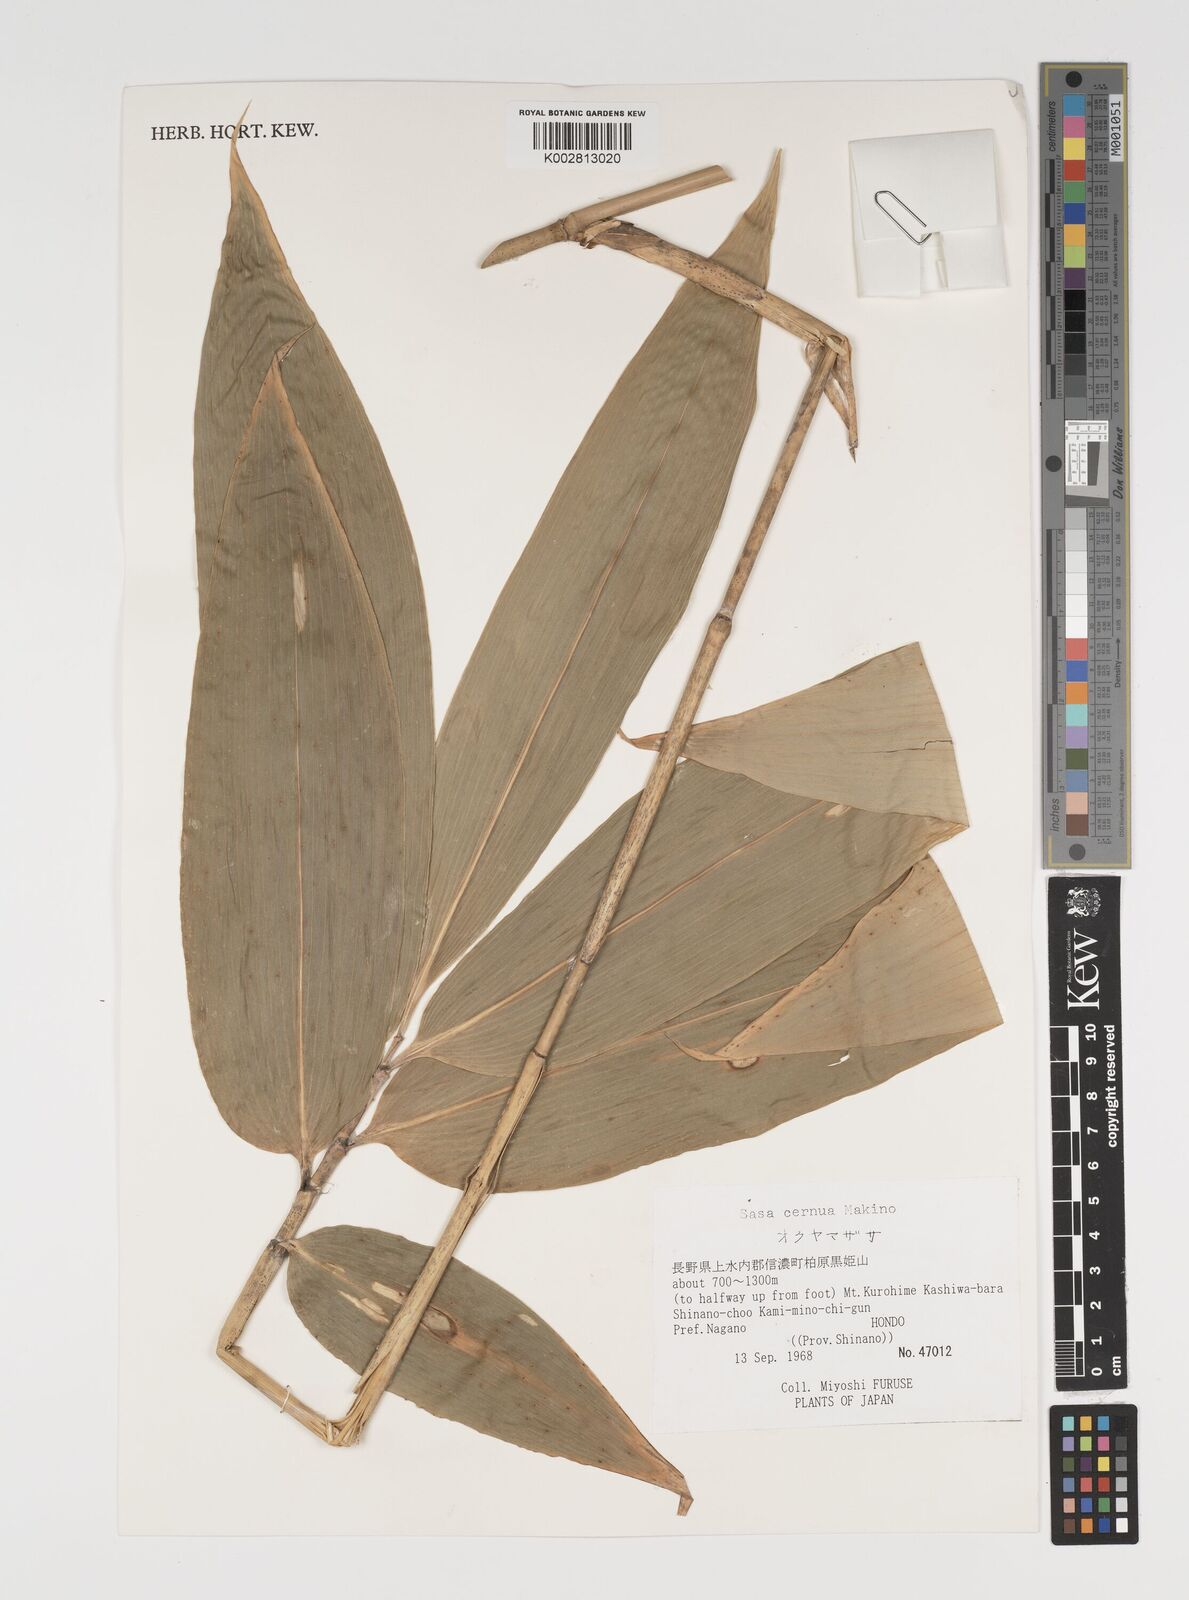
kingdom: Plantae
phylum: Tracheophyta
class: Liliopsida
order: Poales
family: Poaceae
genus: Sasa
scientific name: Sasa cernua
